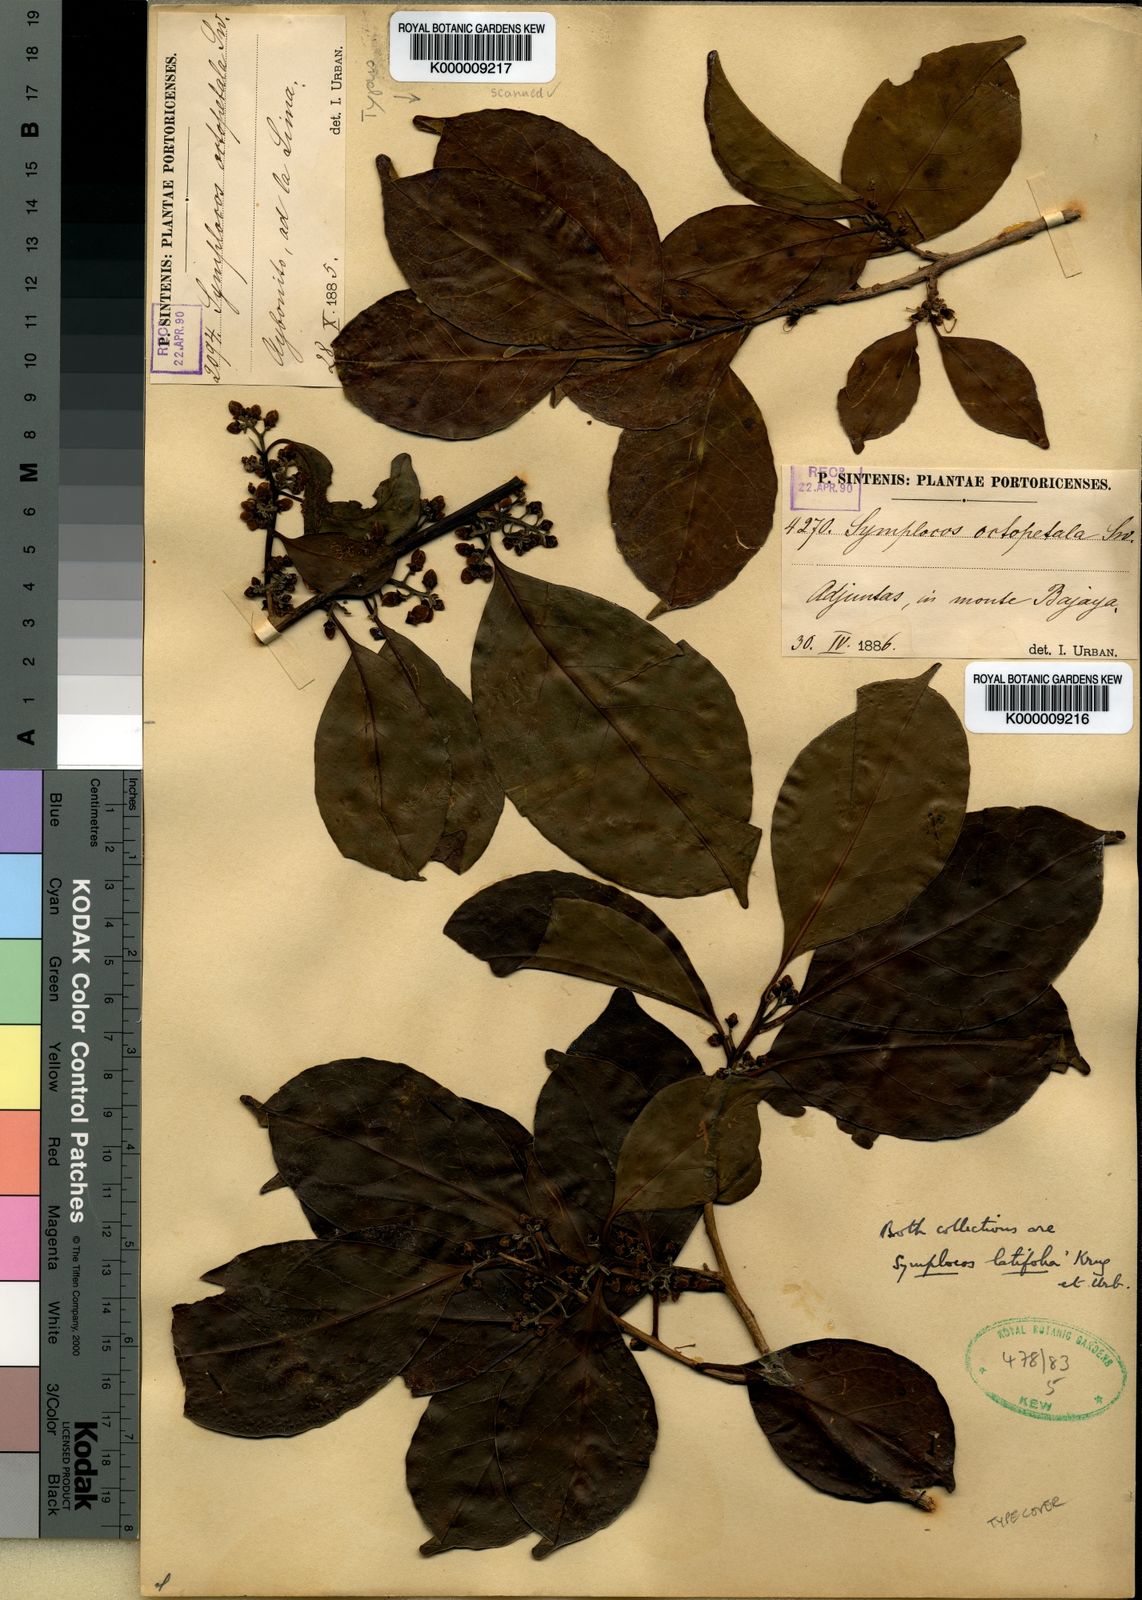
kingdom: Plantae
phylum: Tracheophyta
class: Magnoliopsida
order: Ericales
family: Symplocaceae
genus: Symplocos
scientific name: Symplocos latifolia
